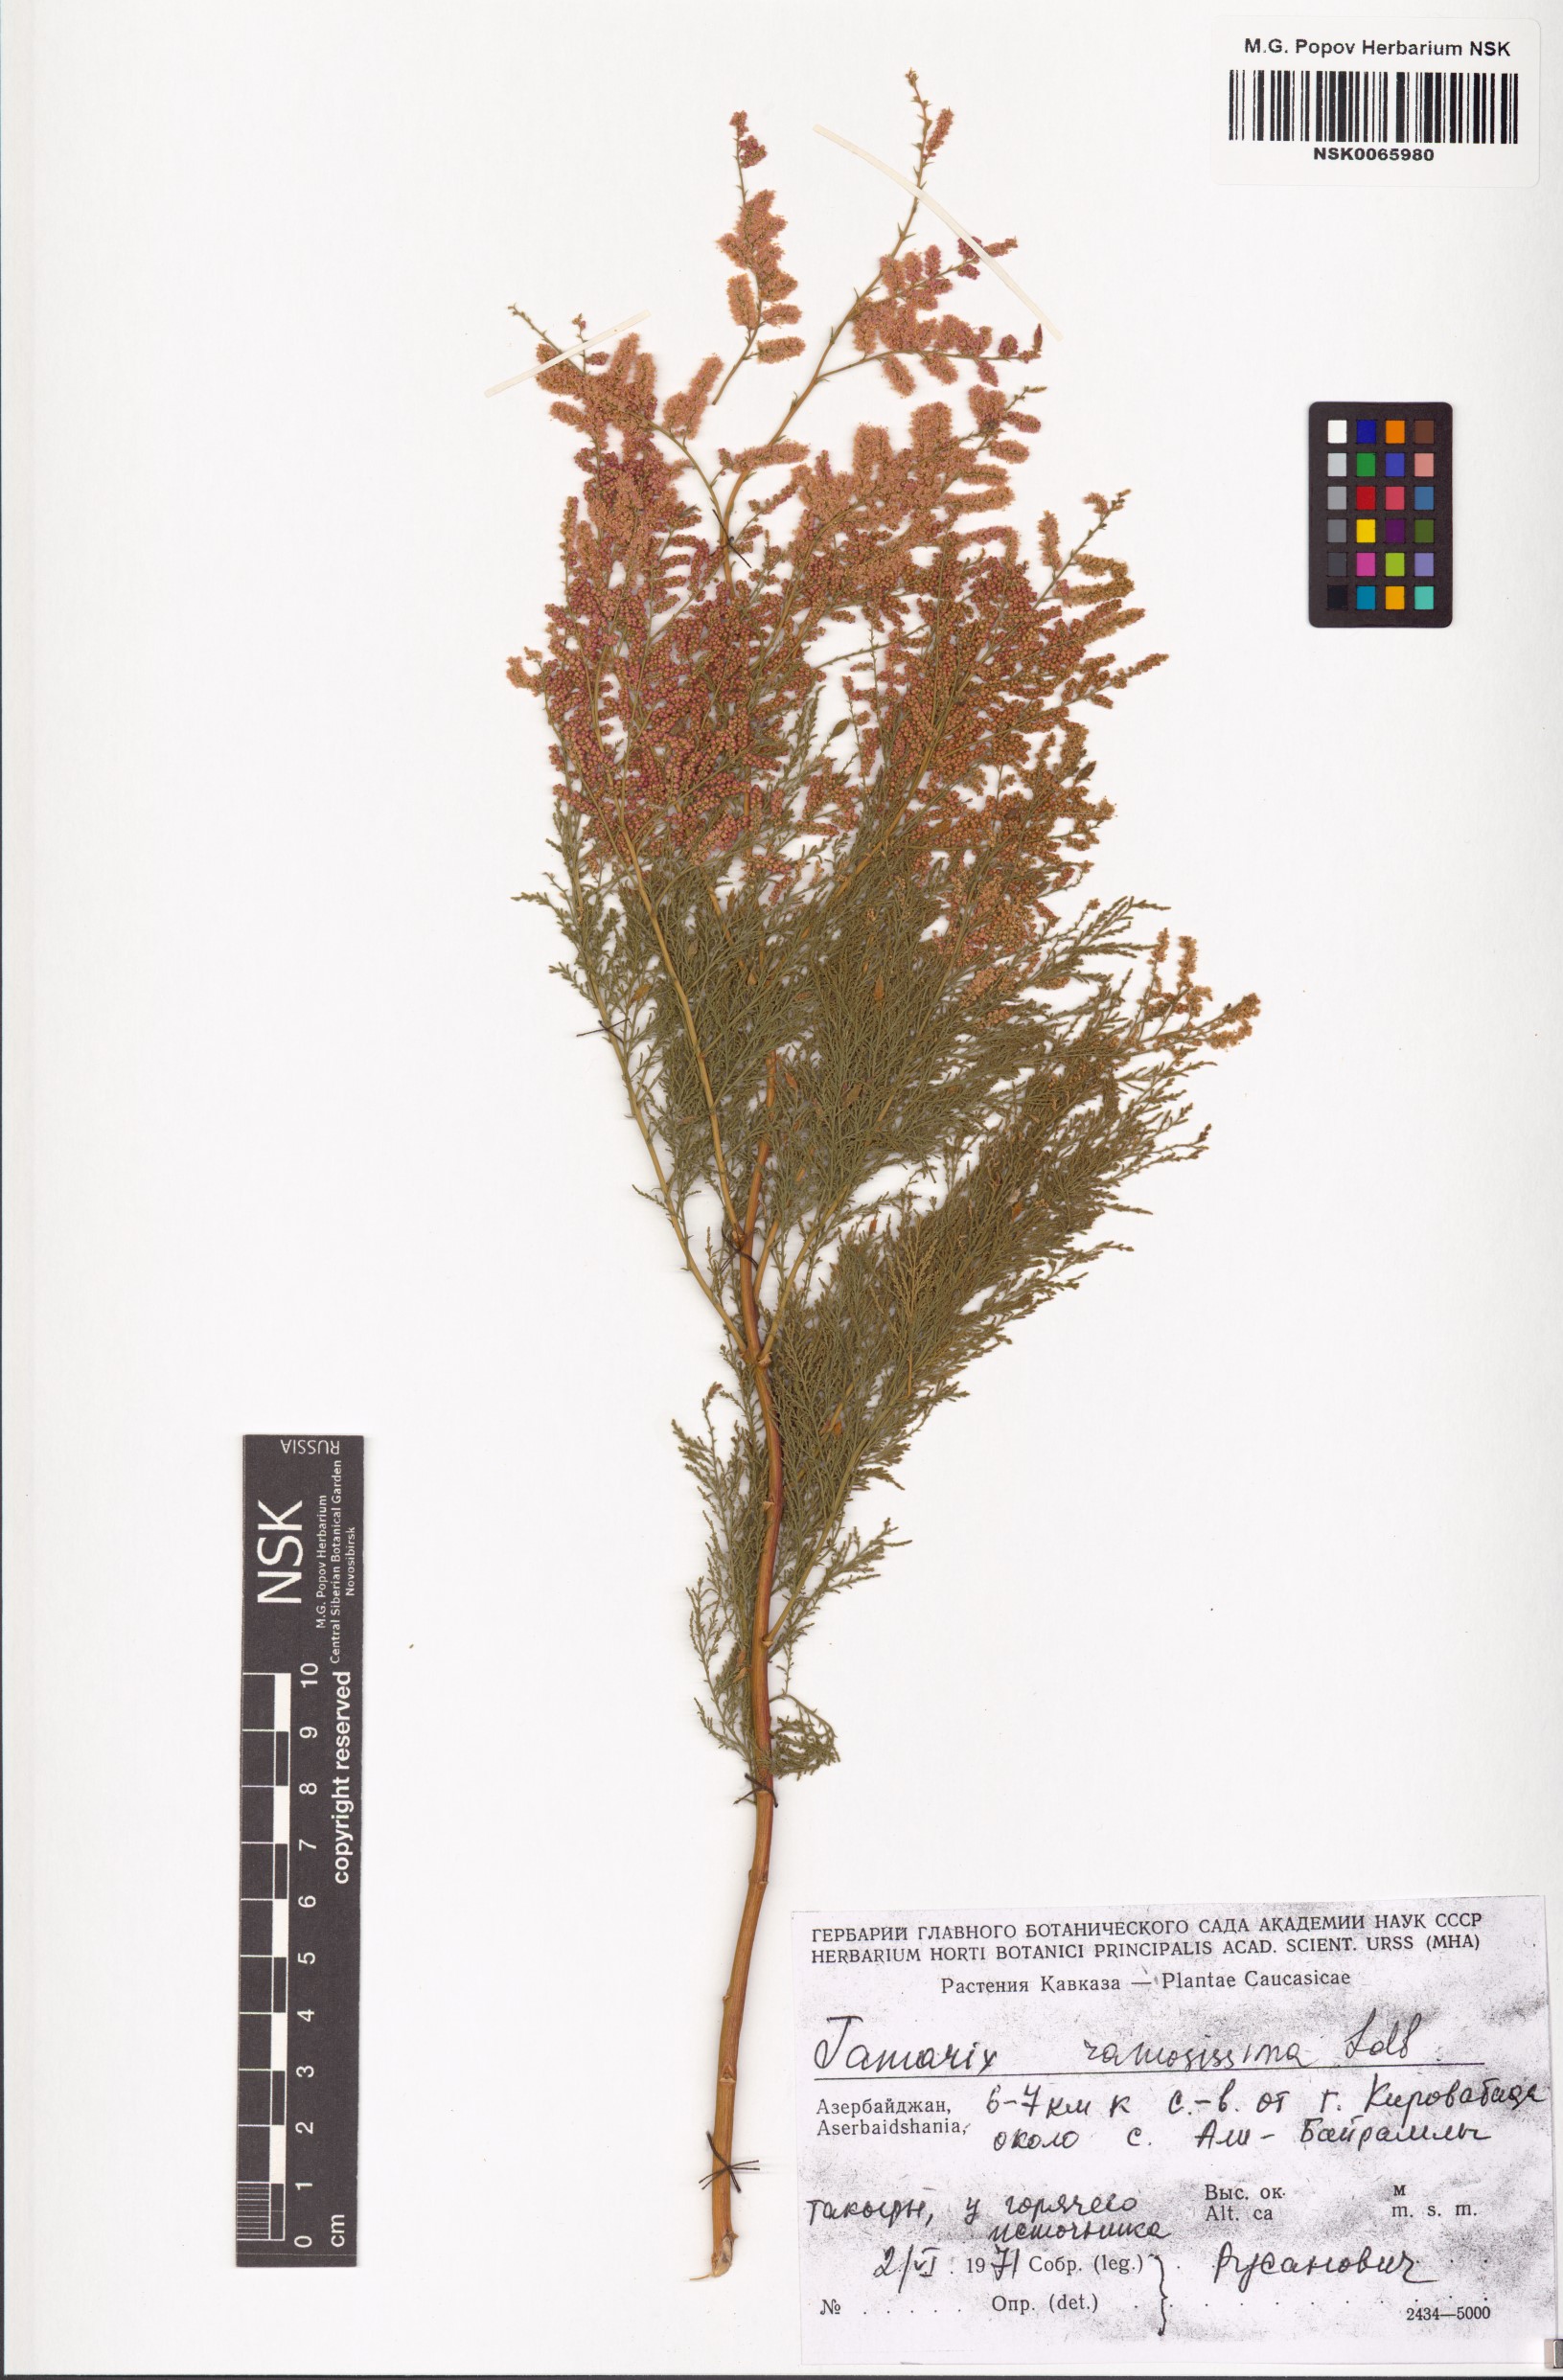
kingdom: Plantae
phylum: Tracheophyta
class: Magnoliopsida
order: Caryophyllales
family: Tamaricaceae
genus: Tamarix
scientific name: Tamarix ramosissima
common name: Pink tamarisk
